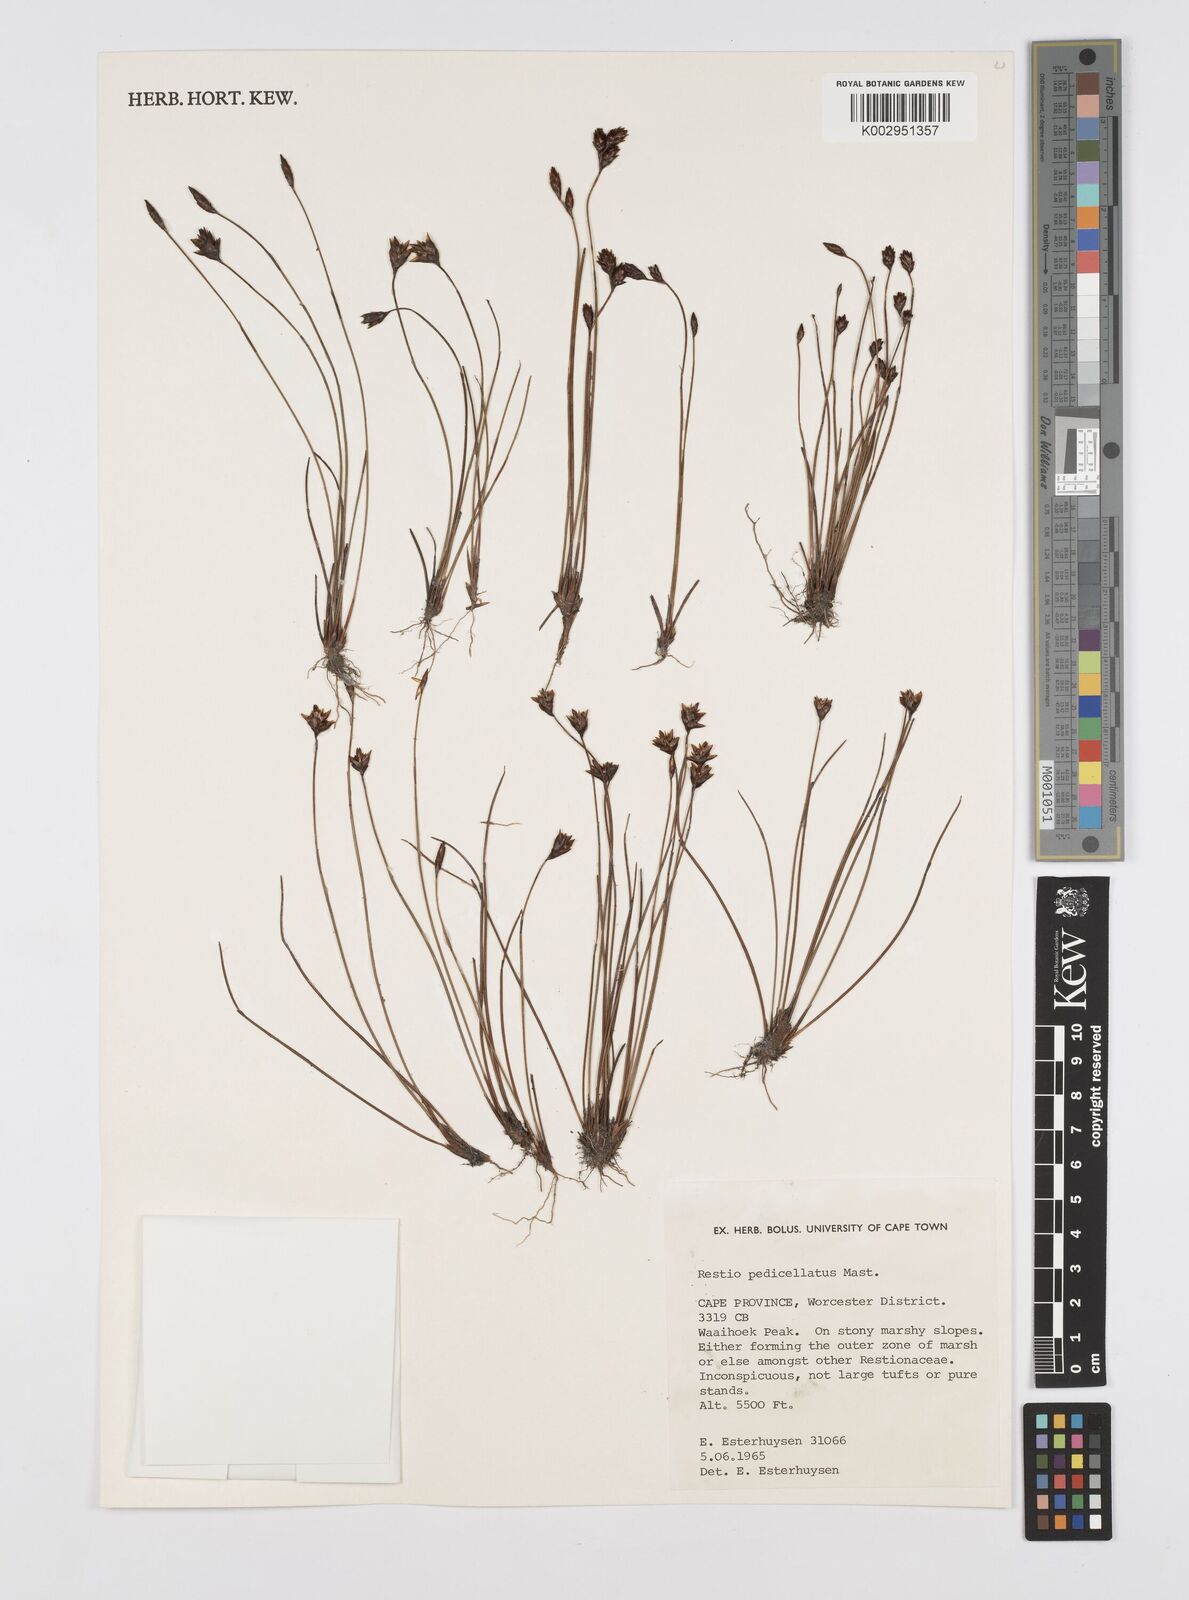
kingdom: Plantae
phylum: Tracheophyta
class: Liliopsida
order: Poales
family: Restionaceae
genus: Restio
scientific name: Restio pedicellatus
